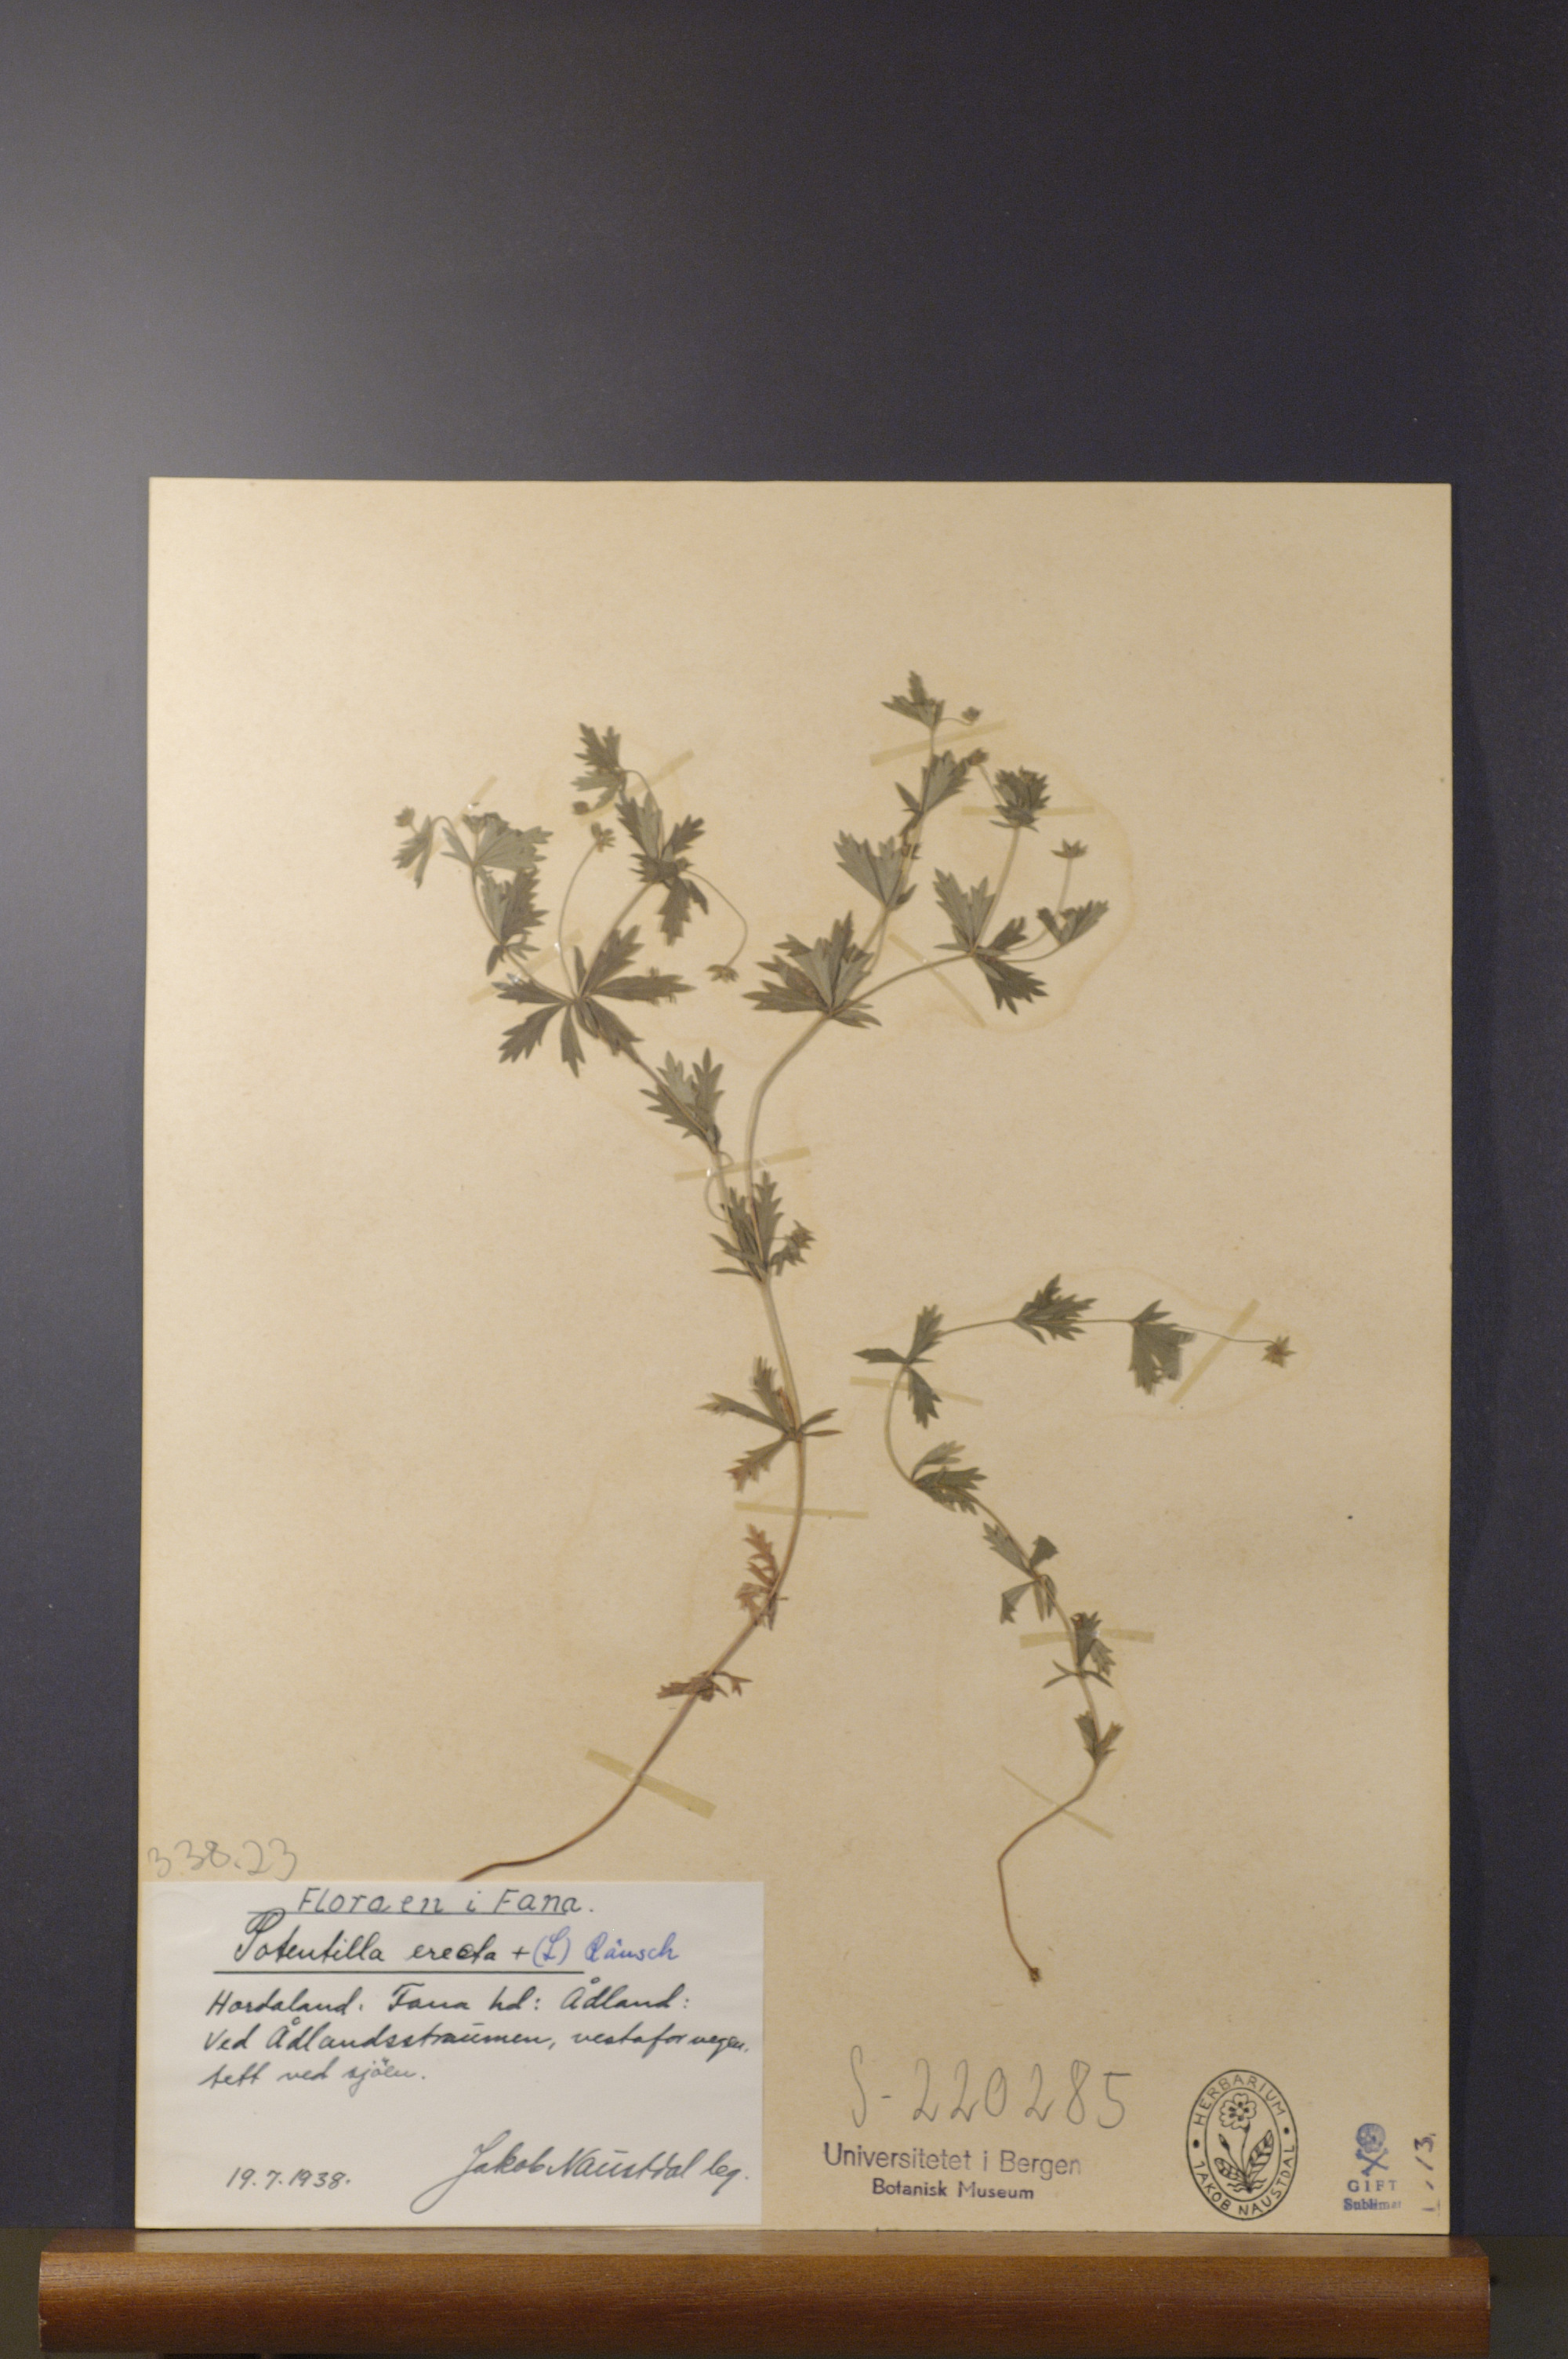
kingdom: Plantae
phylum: Tracheophyta
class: Magnoliopsida
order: Rosales
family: Rosaceae
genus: Potentilla
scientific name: Potentilla erecta
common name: Tormentil
